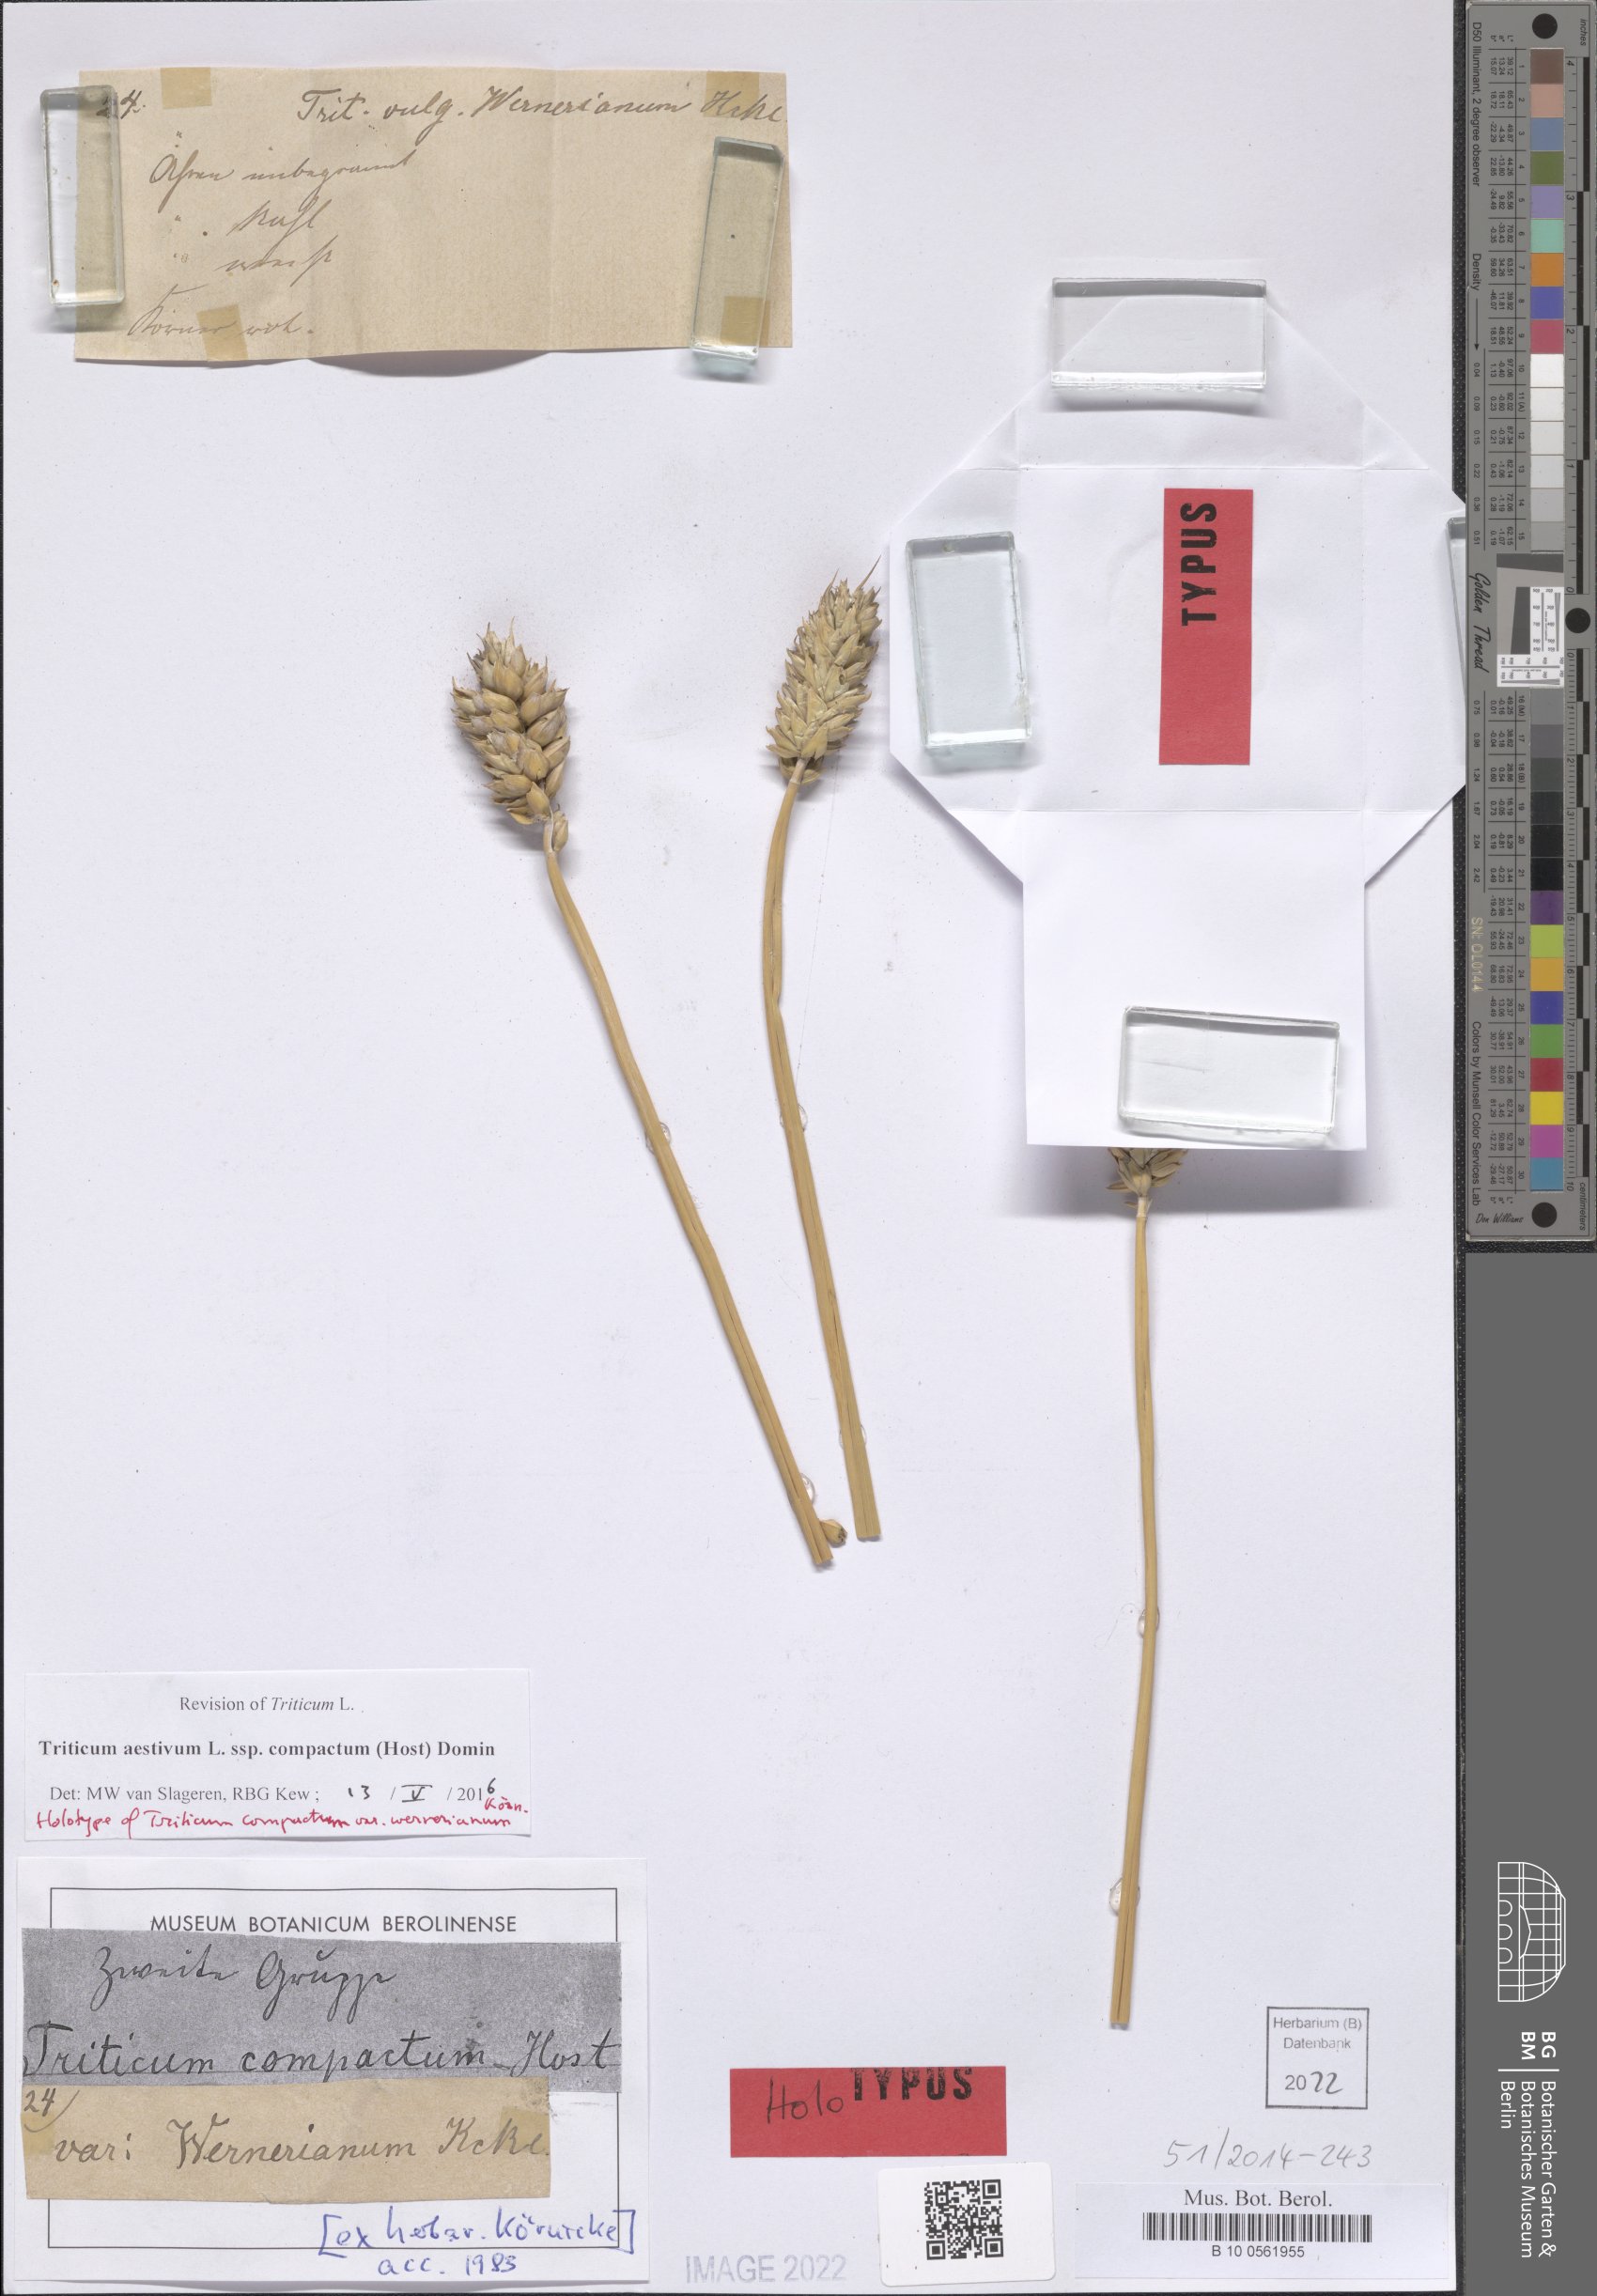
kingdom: Plantae
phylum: Tracheophyta
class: Liliopsida
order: Poales
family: Poaceae
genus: Triticum
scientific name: Triticum aestivum
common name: Common wheat
